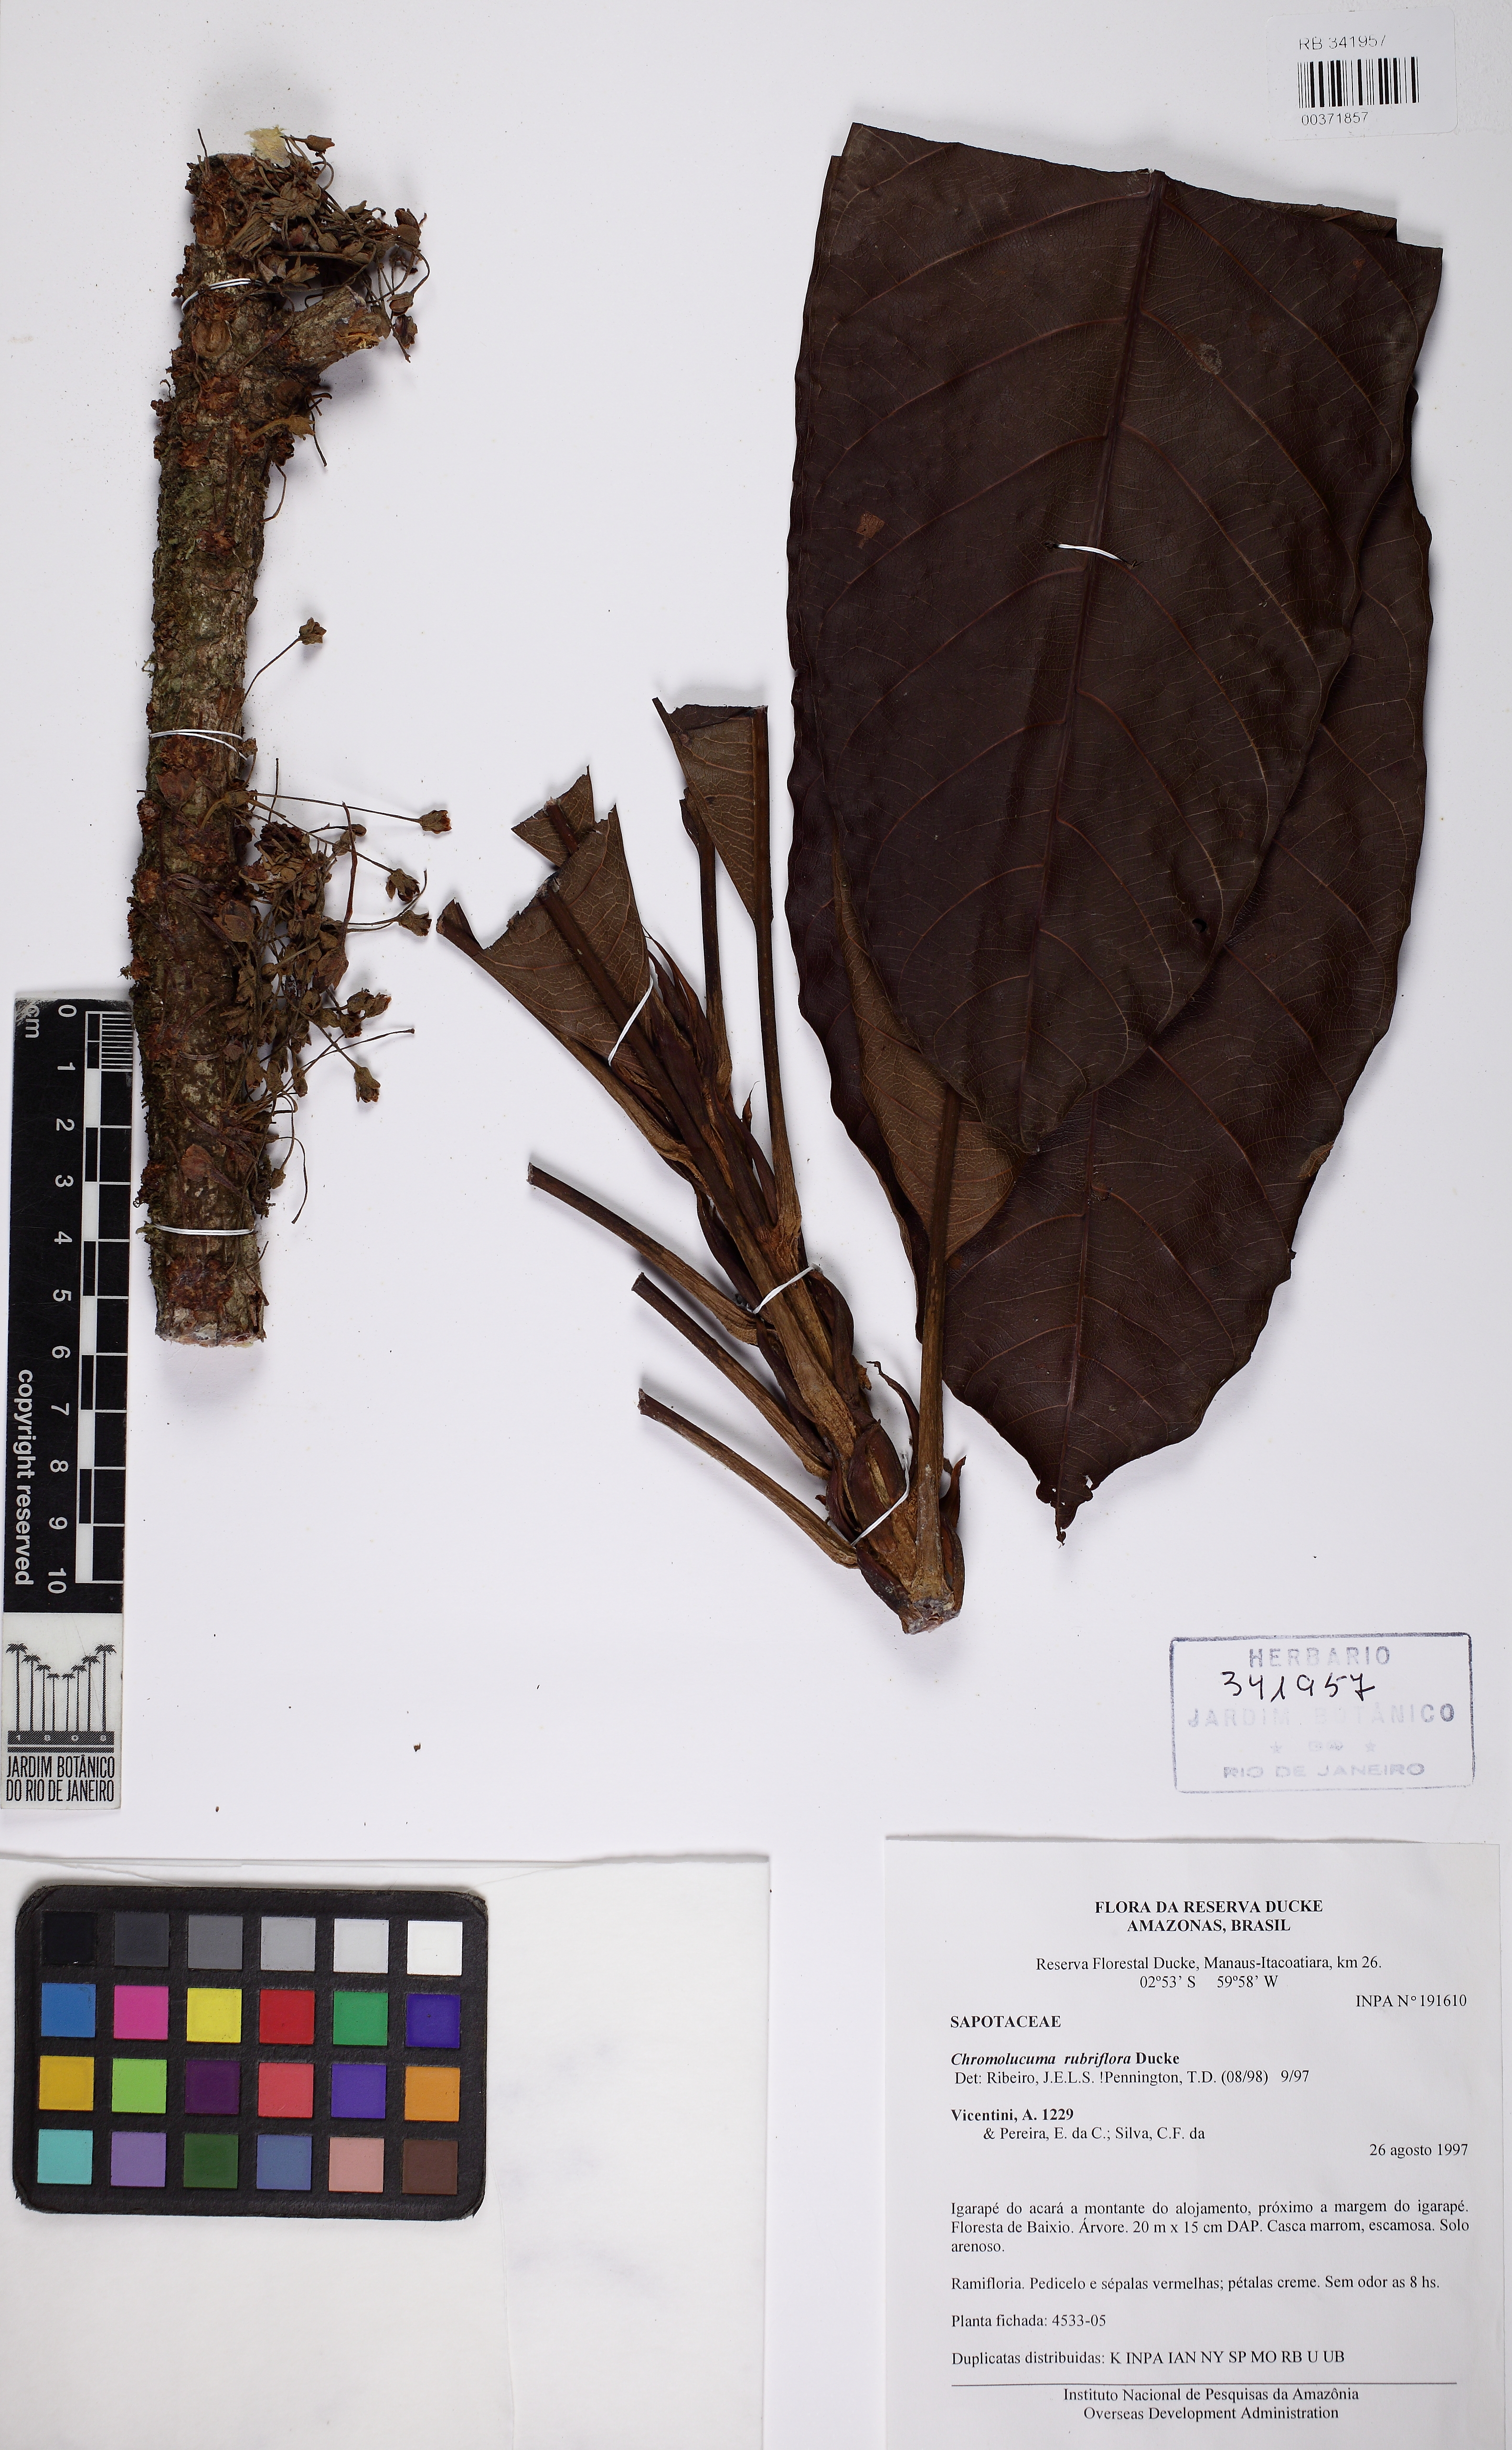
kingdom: Plantae
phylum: Tracheophyta
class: Magnoliopsida
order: Ericales
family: Sapotaceae
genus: Chromolucuma
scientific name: Chromolucuma rubriflora
